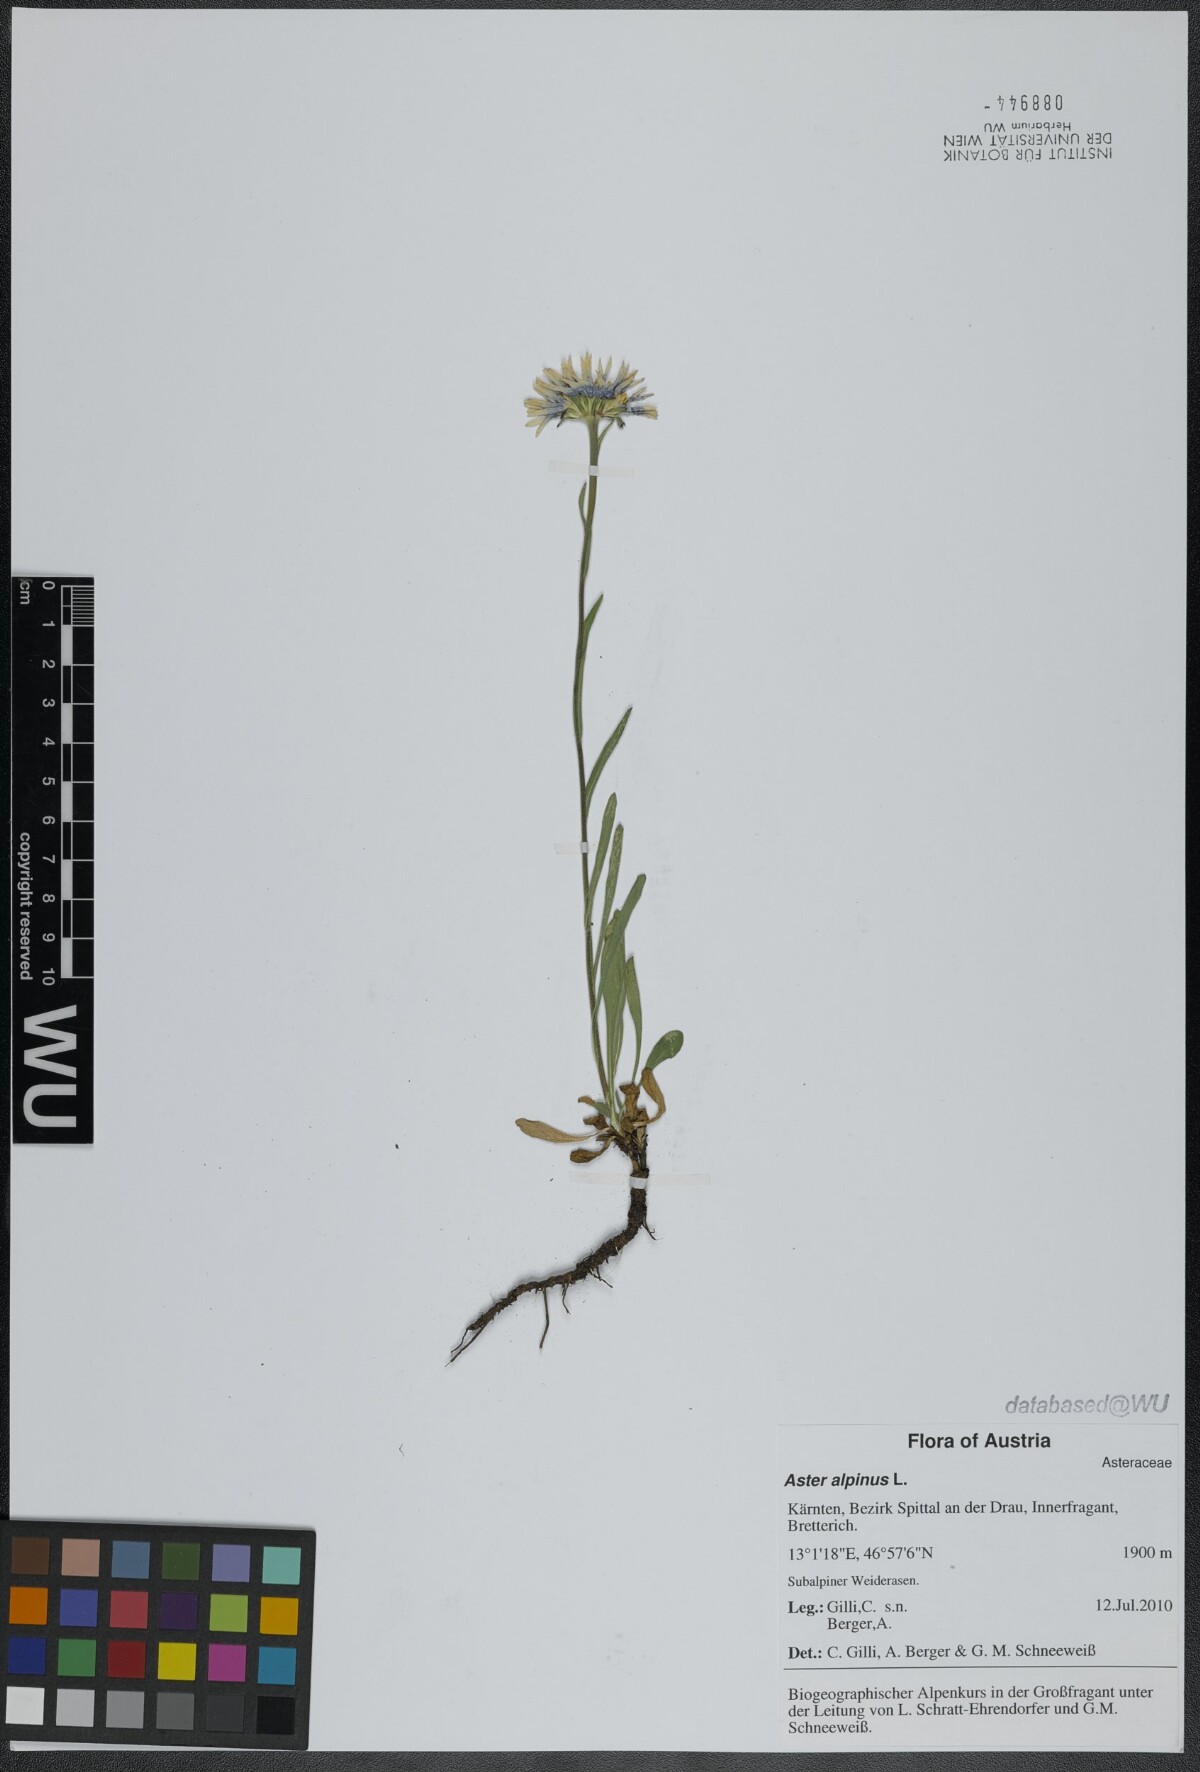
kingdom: Plantae
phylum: Tracheophyta
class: Magnoliopsida
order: Asterales
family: Asteraceae
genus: Aster
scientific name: Aster alpinus
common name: Alpine aster
